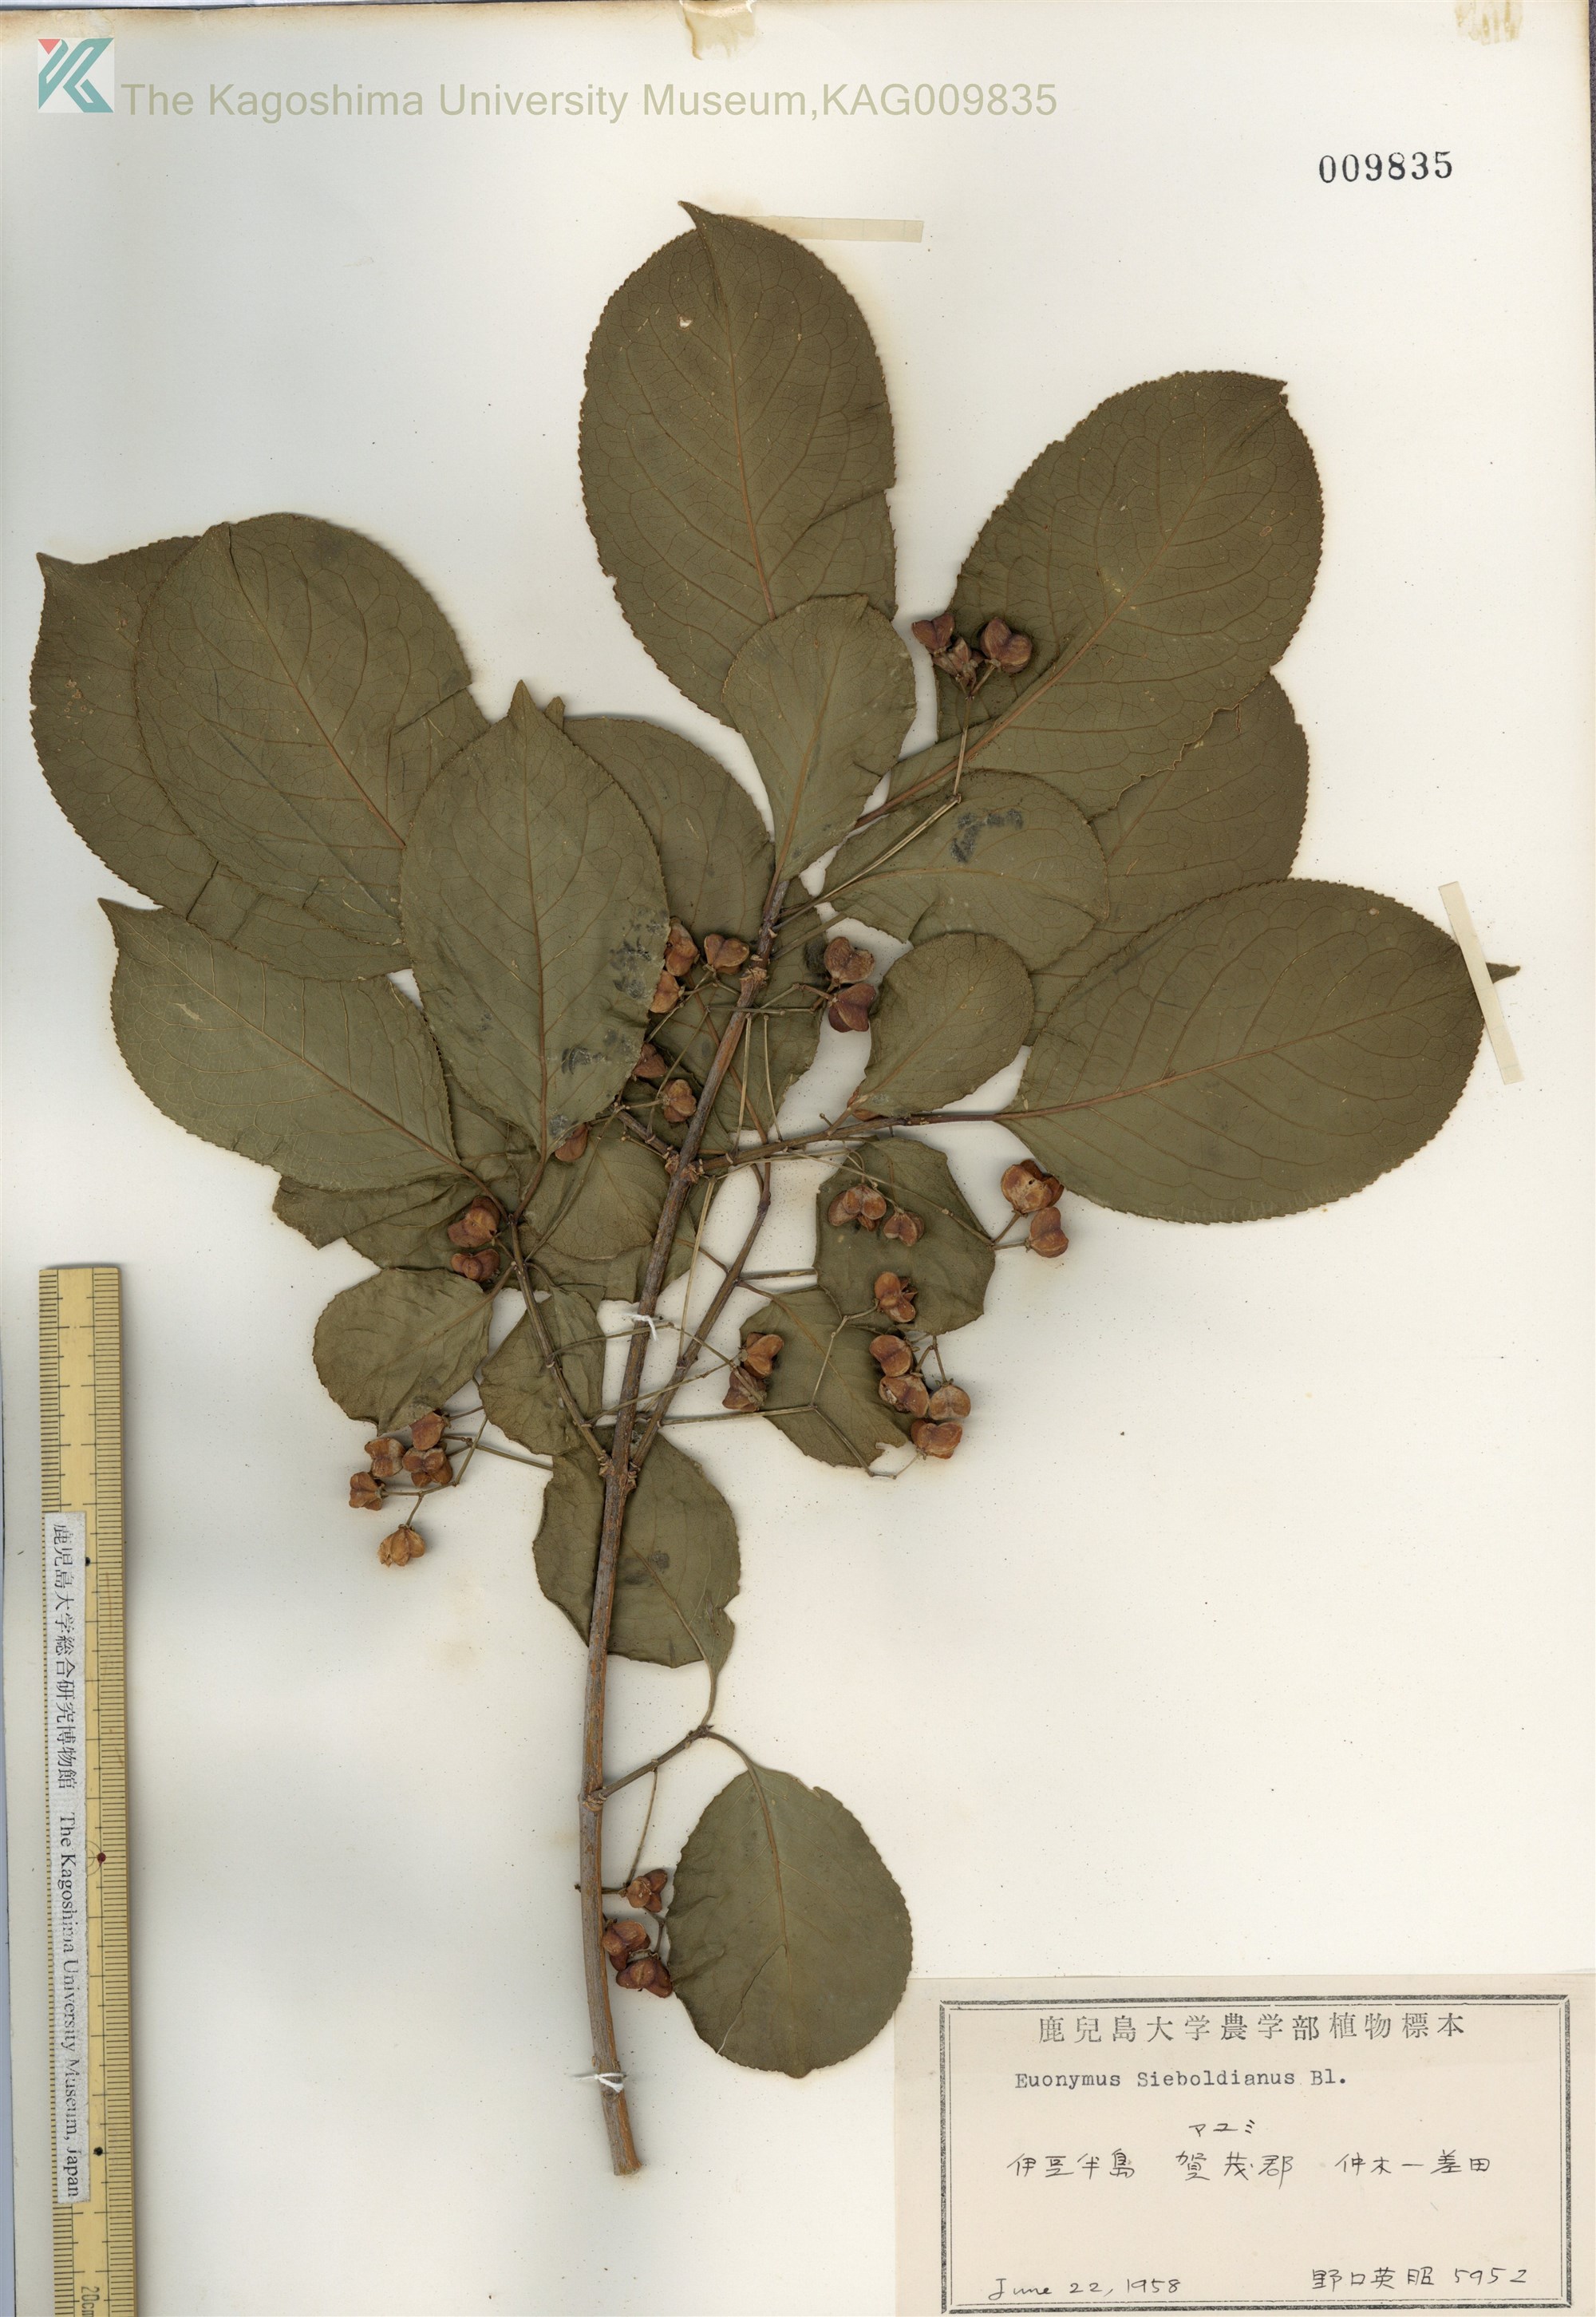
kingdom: Plantae
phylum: Tracheophyta
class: Magnoliopsida
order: Celastrales
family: Celastraceae
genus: Euonymus
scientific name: Euonymus hamiltonianus
